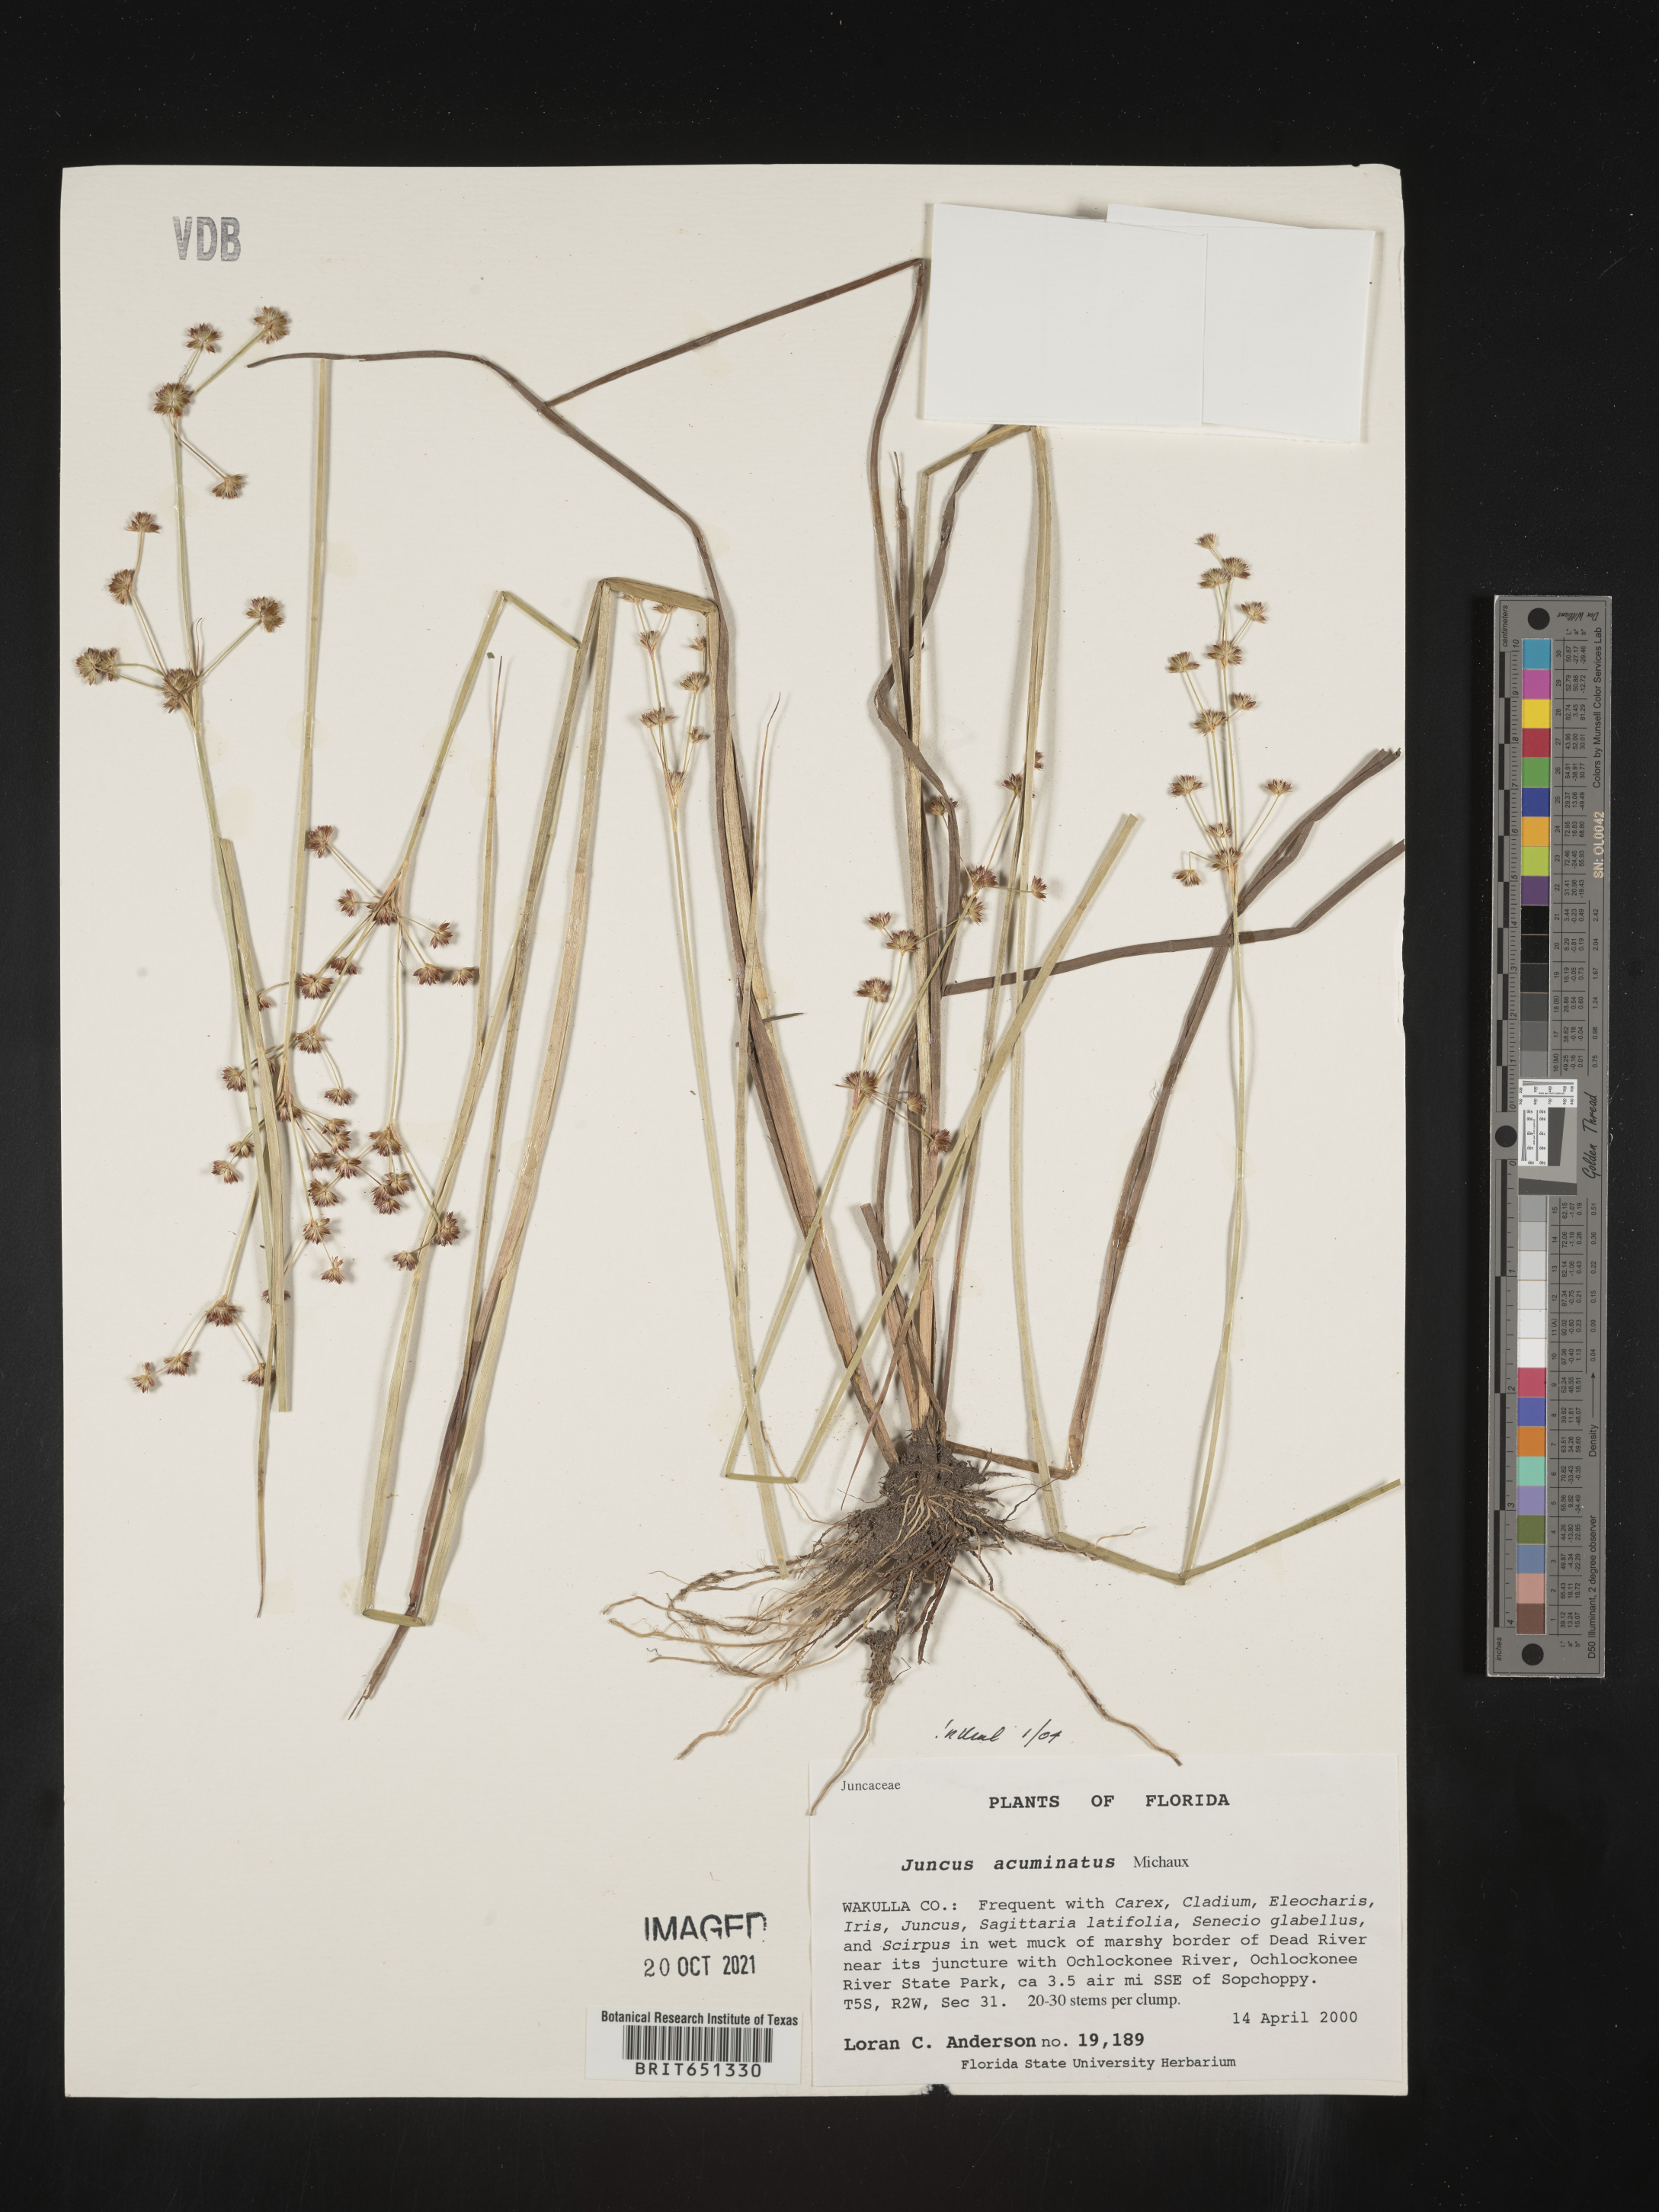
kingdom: Plantae
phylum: Tracheophyta
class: Liliopsida
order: Poales
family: Juncaceae
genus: Juncus
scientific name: Juncus acuminatus
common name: Knotty-leaved rush
